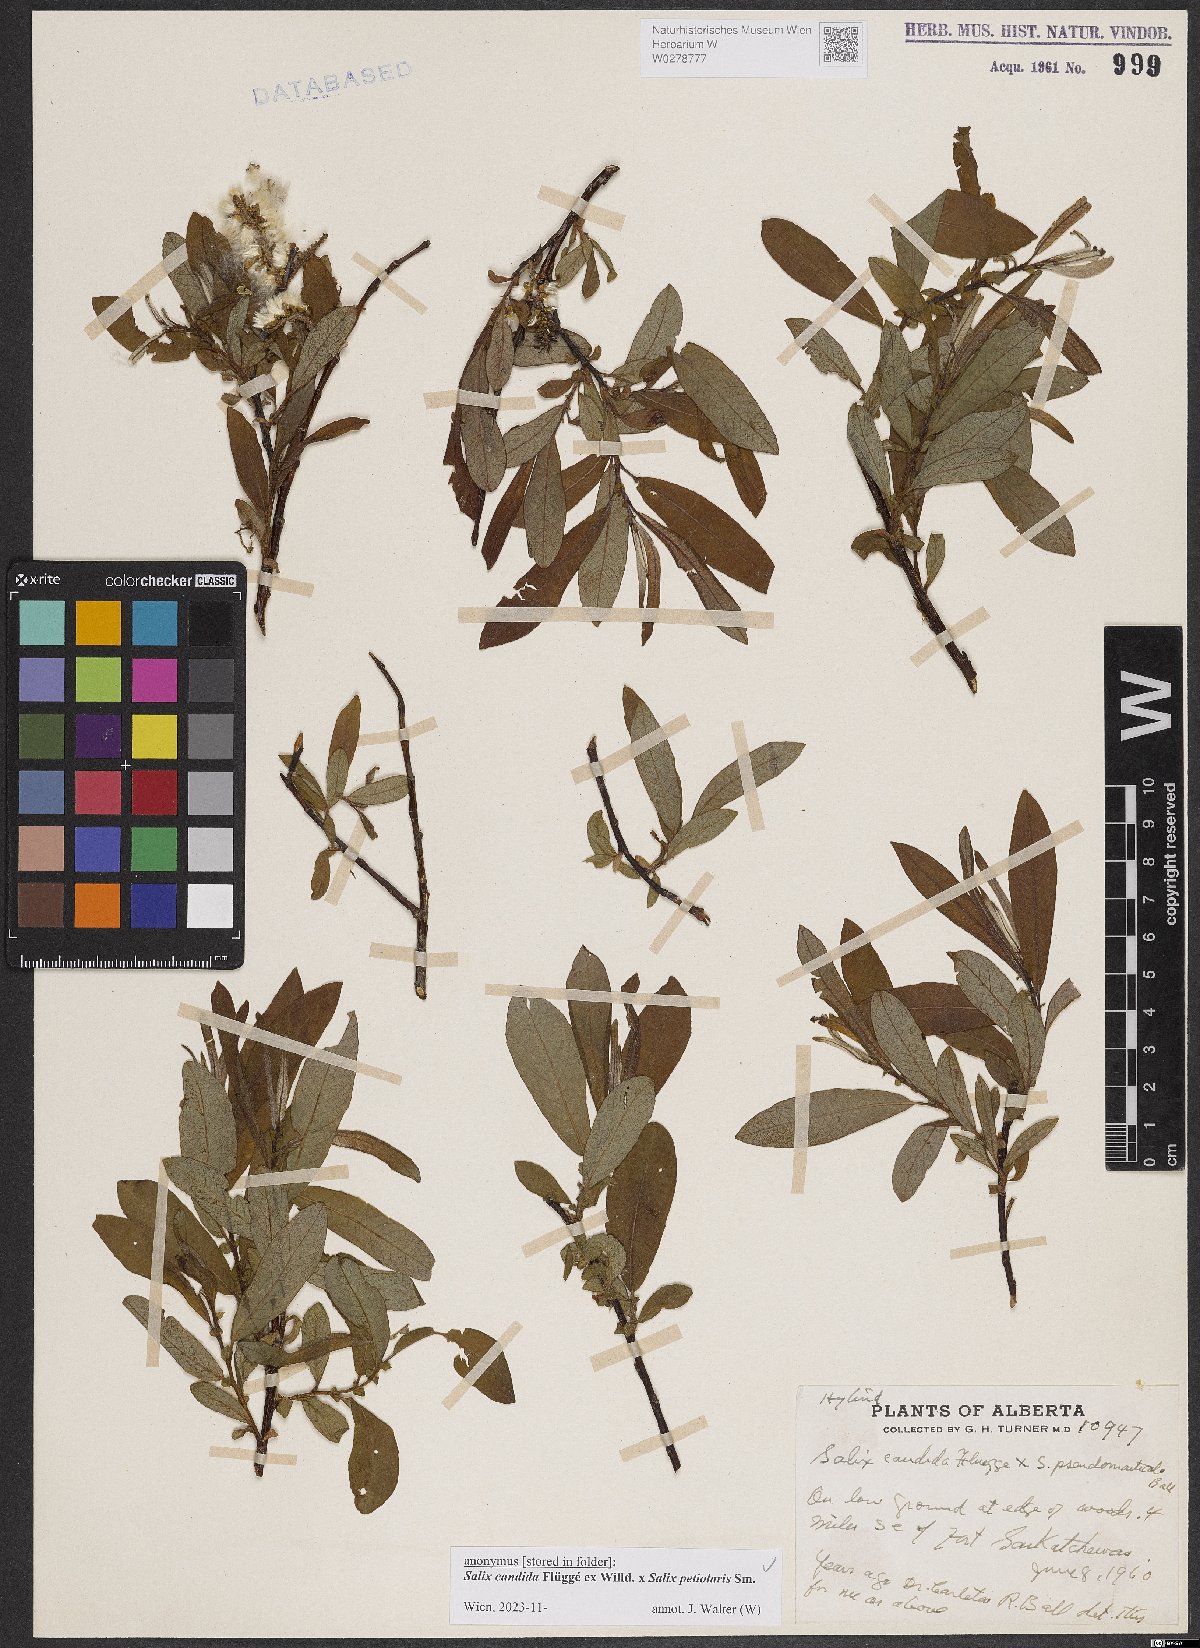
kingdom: Plantae
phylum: Tracheophyta
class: Magnoliopsida
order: Malpighiales
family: Salicaceae
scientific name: Salicaceae
